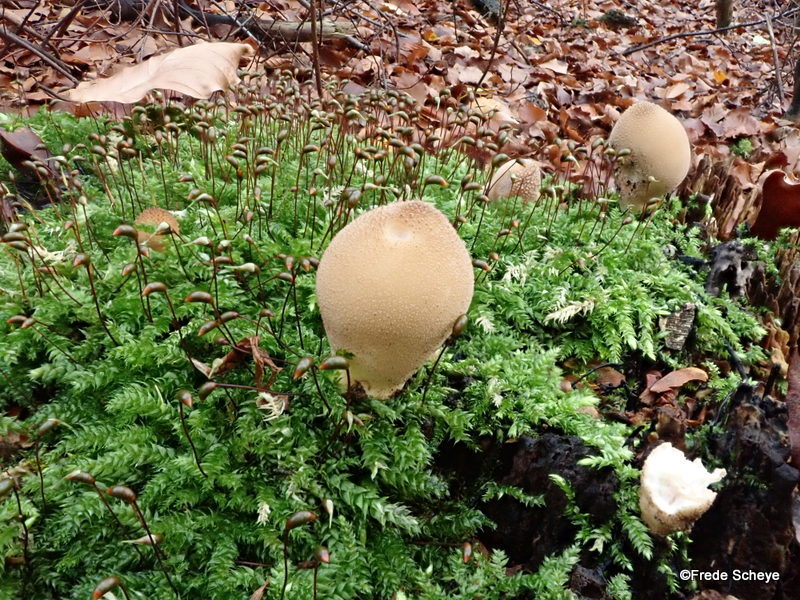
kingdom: Fungi
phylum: Basidiomycota
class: Agaricomycetes
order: Agaricales
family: Lycoperdaceae
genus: Apioperdon
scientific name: Apioperdon pyriforme
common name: pære-støvbold
